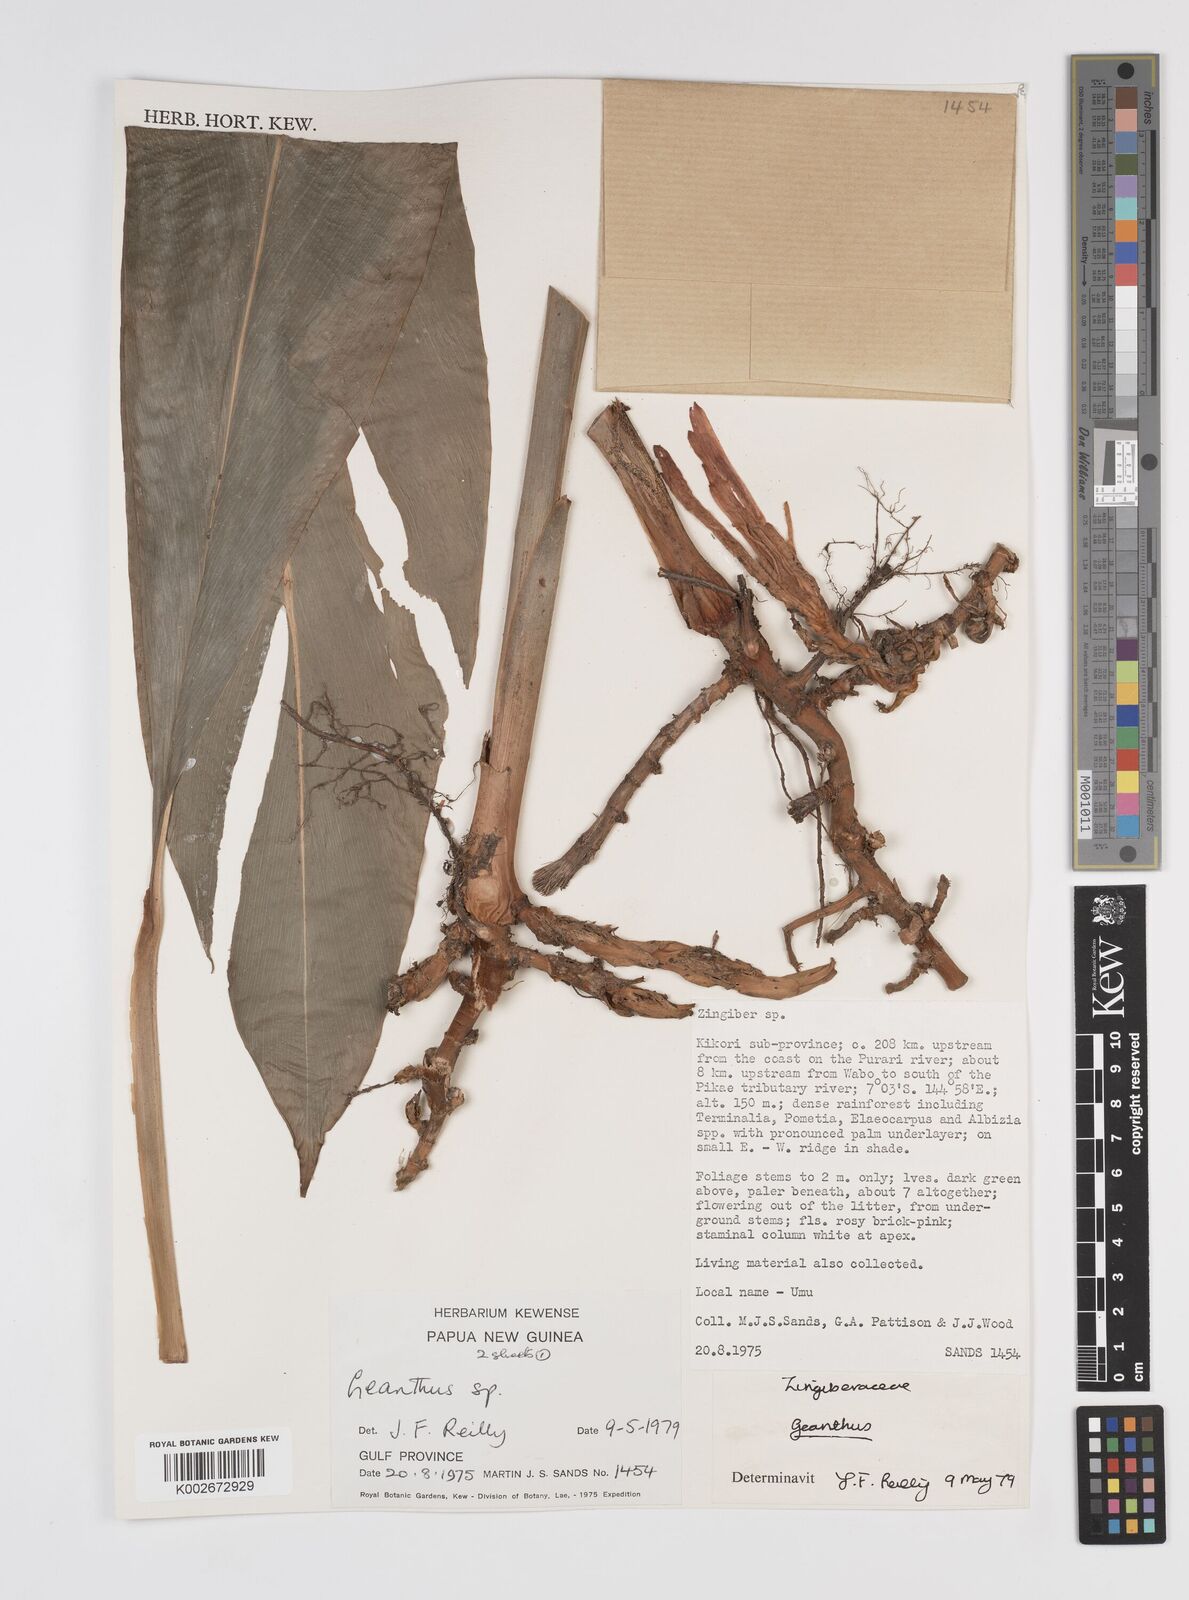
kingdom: Plantae
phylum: Tracheophyta
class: Liliopsida
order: Zingiberales
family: Zingiberaceae
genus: Etlingera
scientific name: Etlingera
